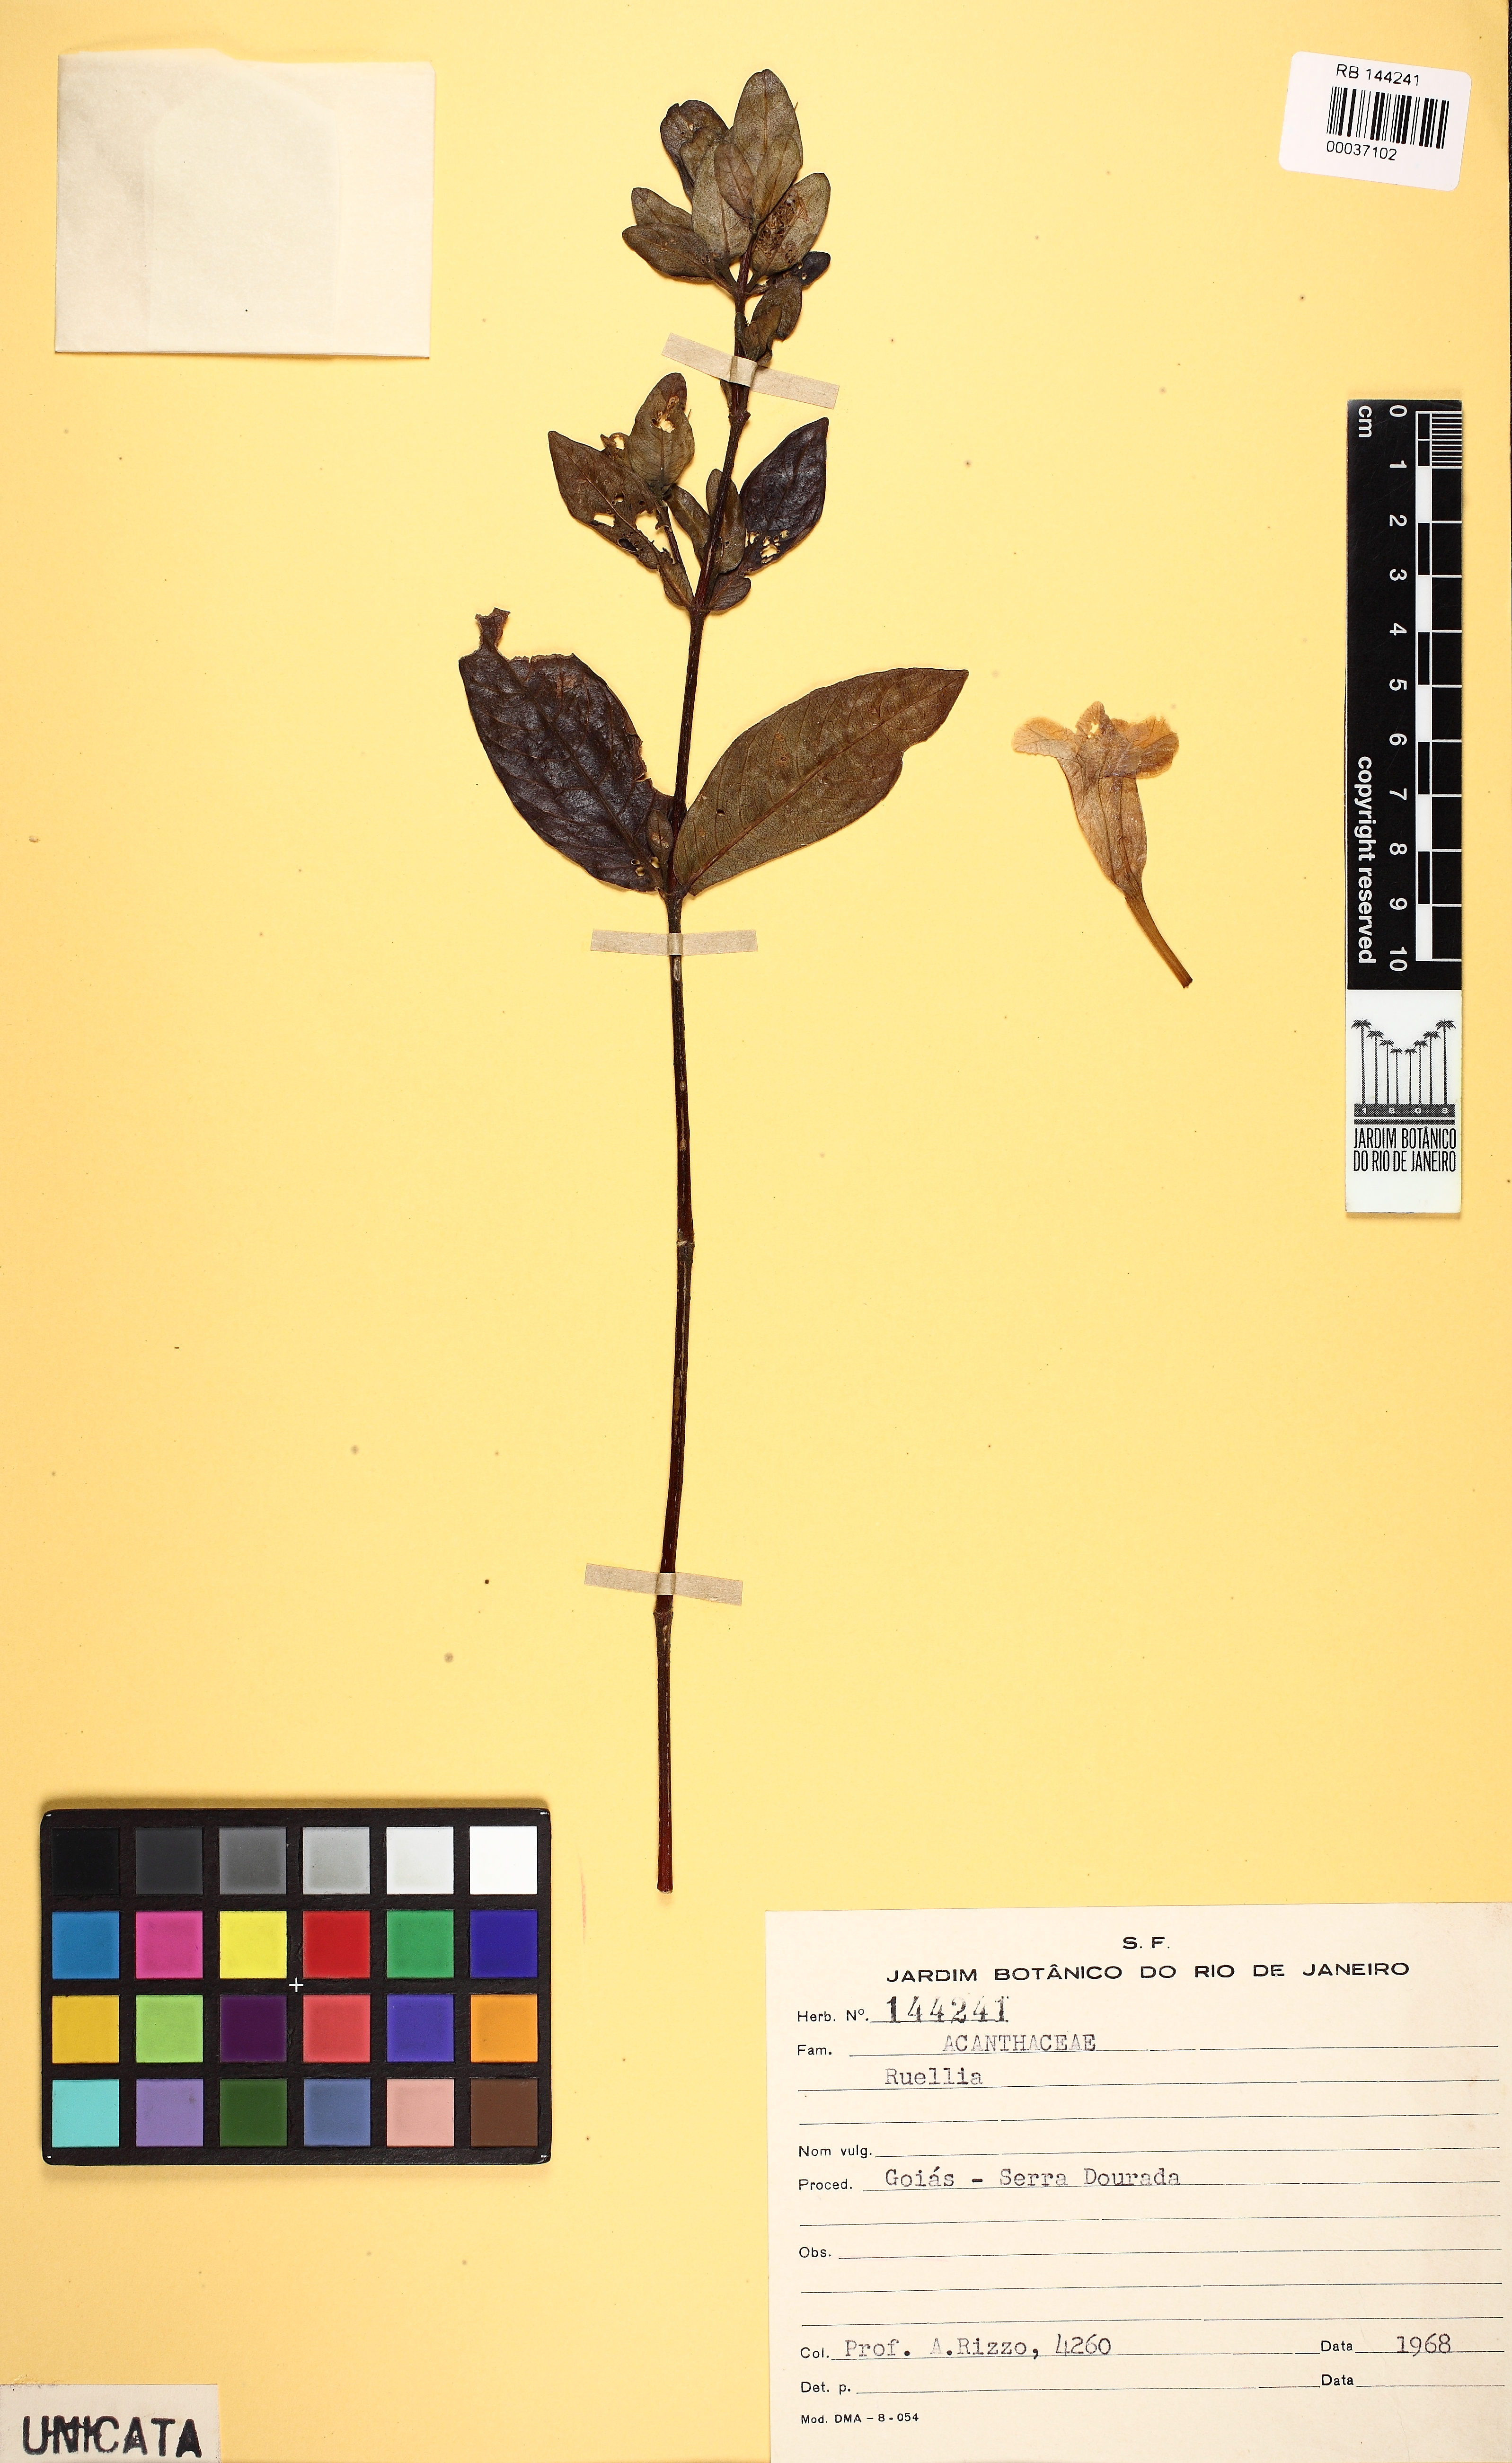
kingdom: Plantae
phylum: Tracheophyta
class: Magnoliopsida
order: Lamiales
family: Acanthaceae
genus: Ruellia
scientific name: Ruellia nitens
